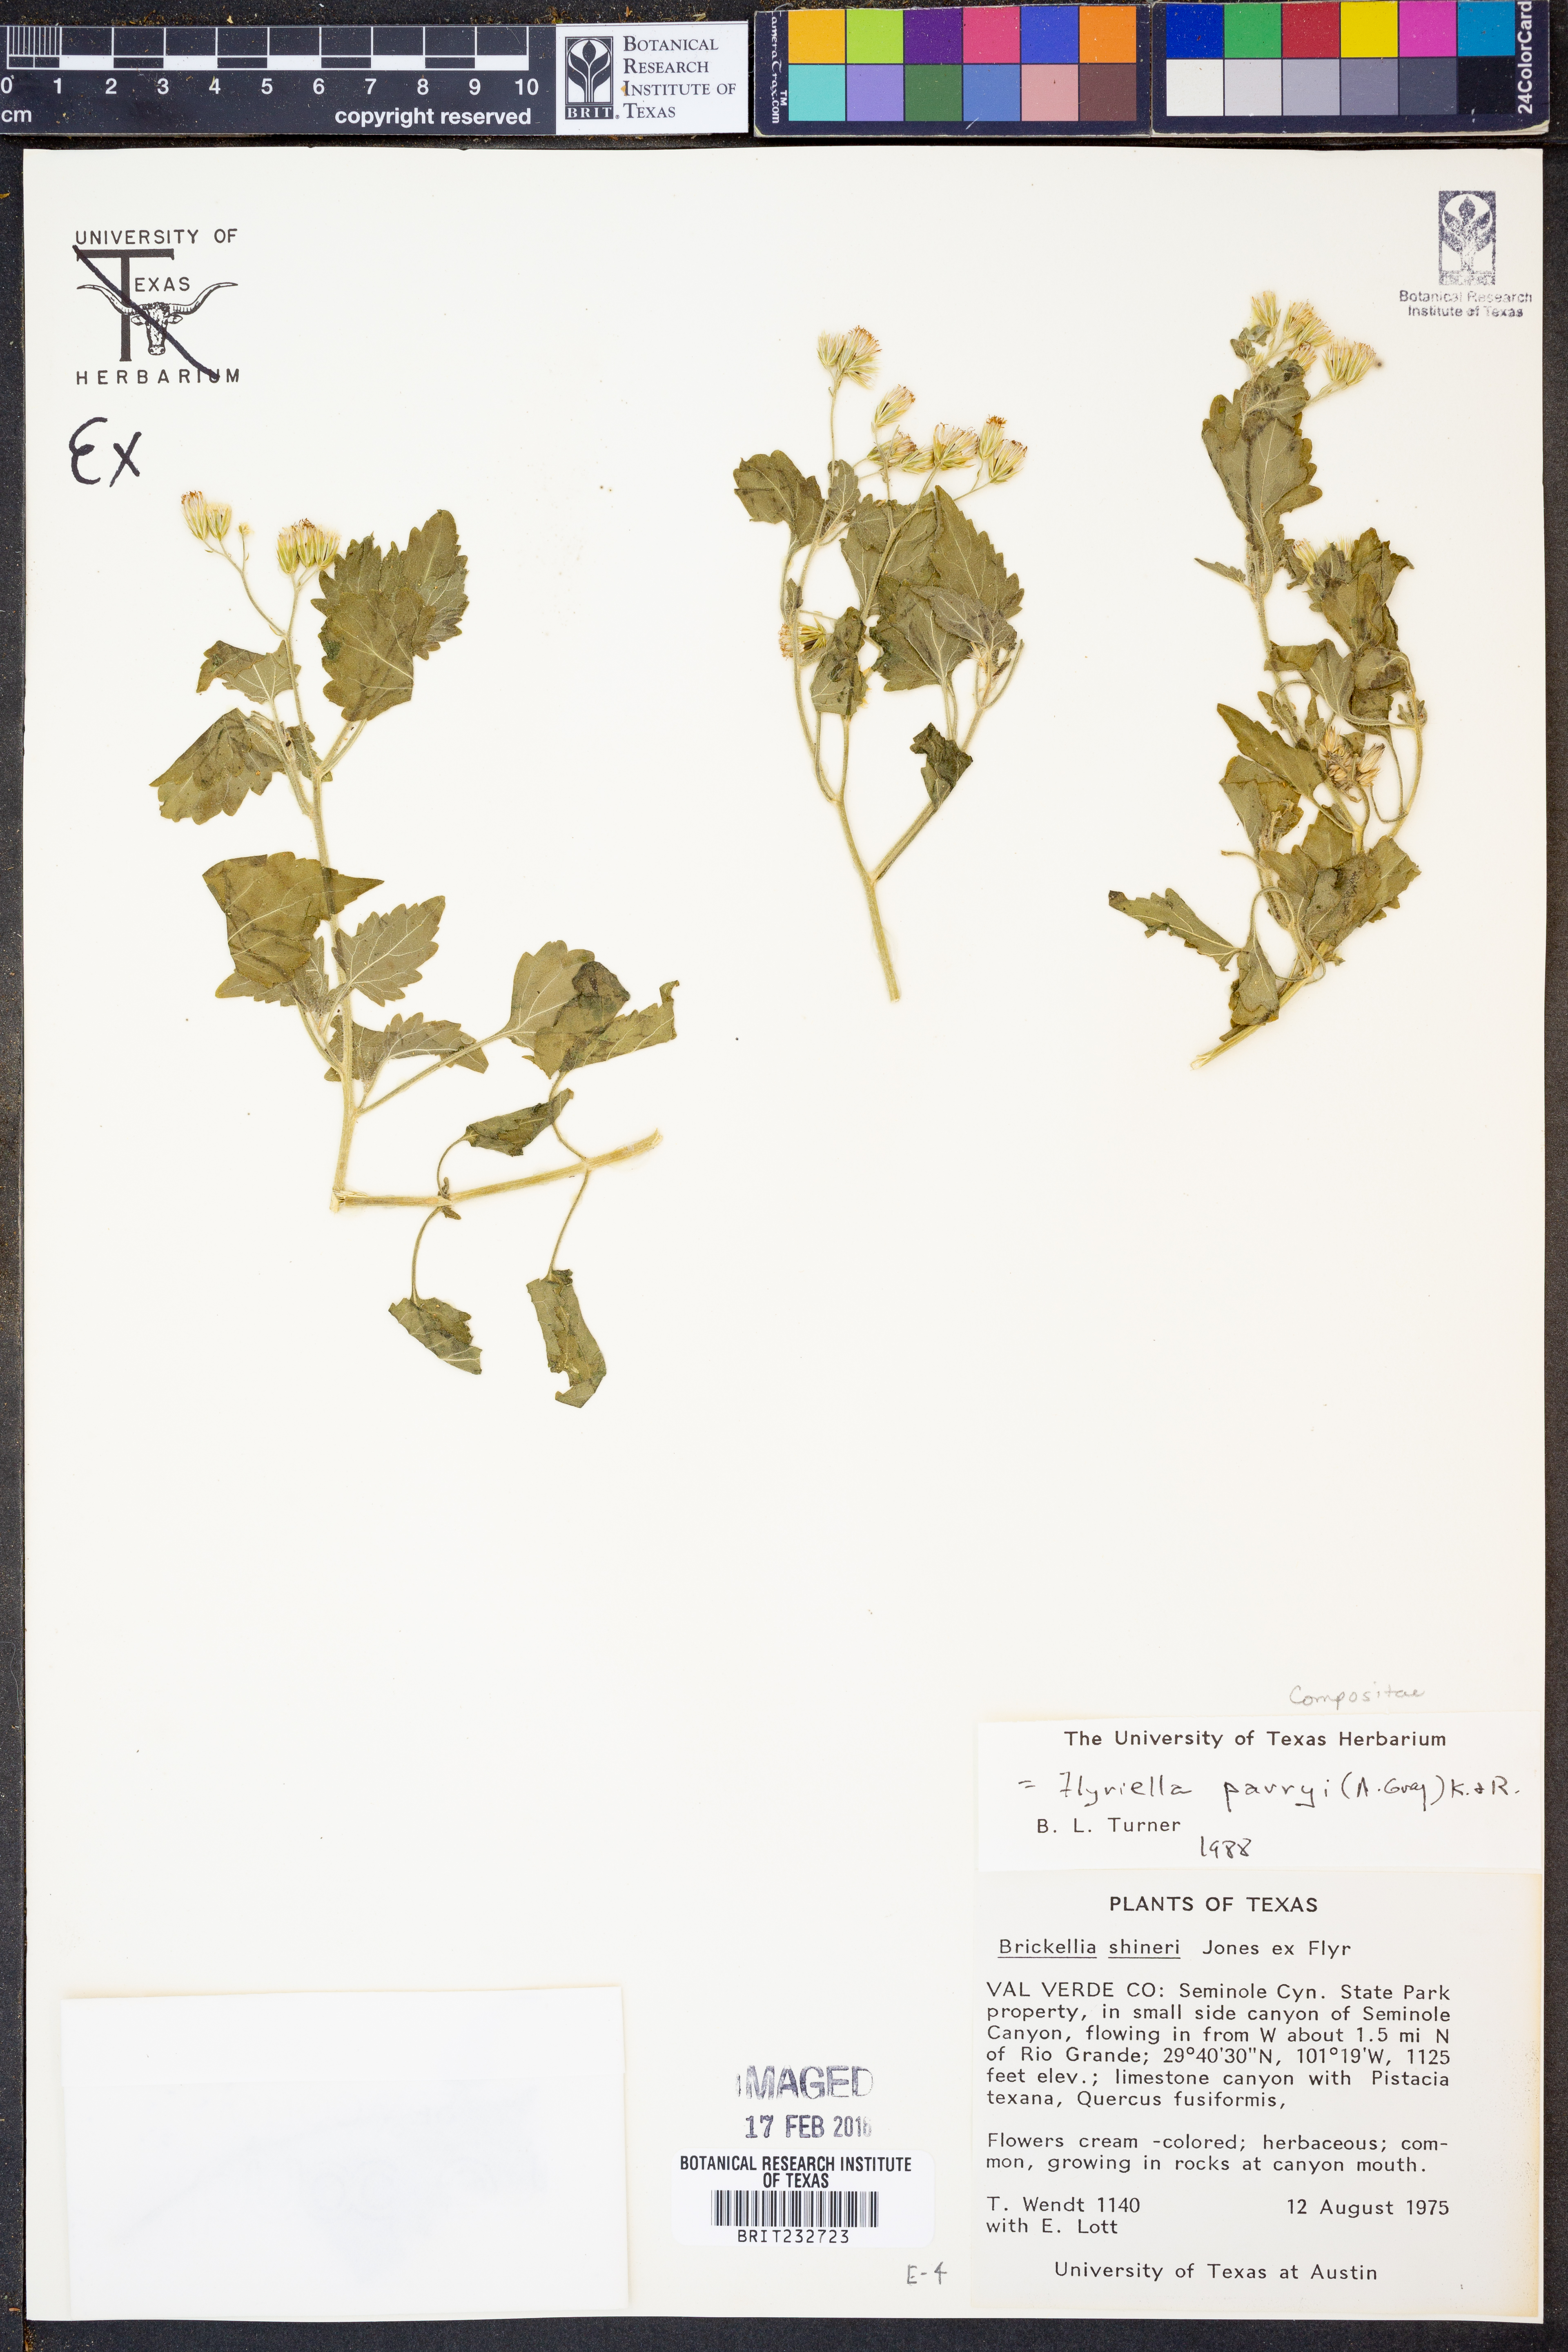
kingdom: Plantae
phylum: Tracheophyta
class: Magnoliopsida
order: Asterales
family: Asteraceae
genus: Flyriella
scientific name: Flyriella parryi
